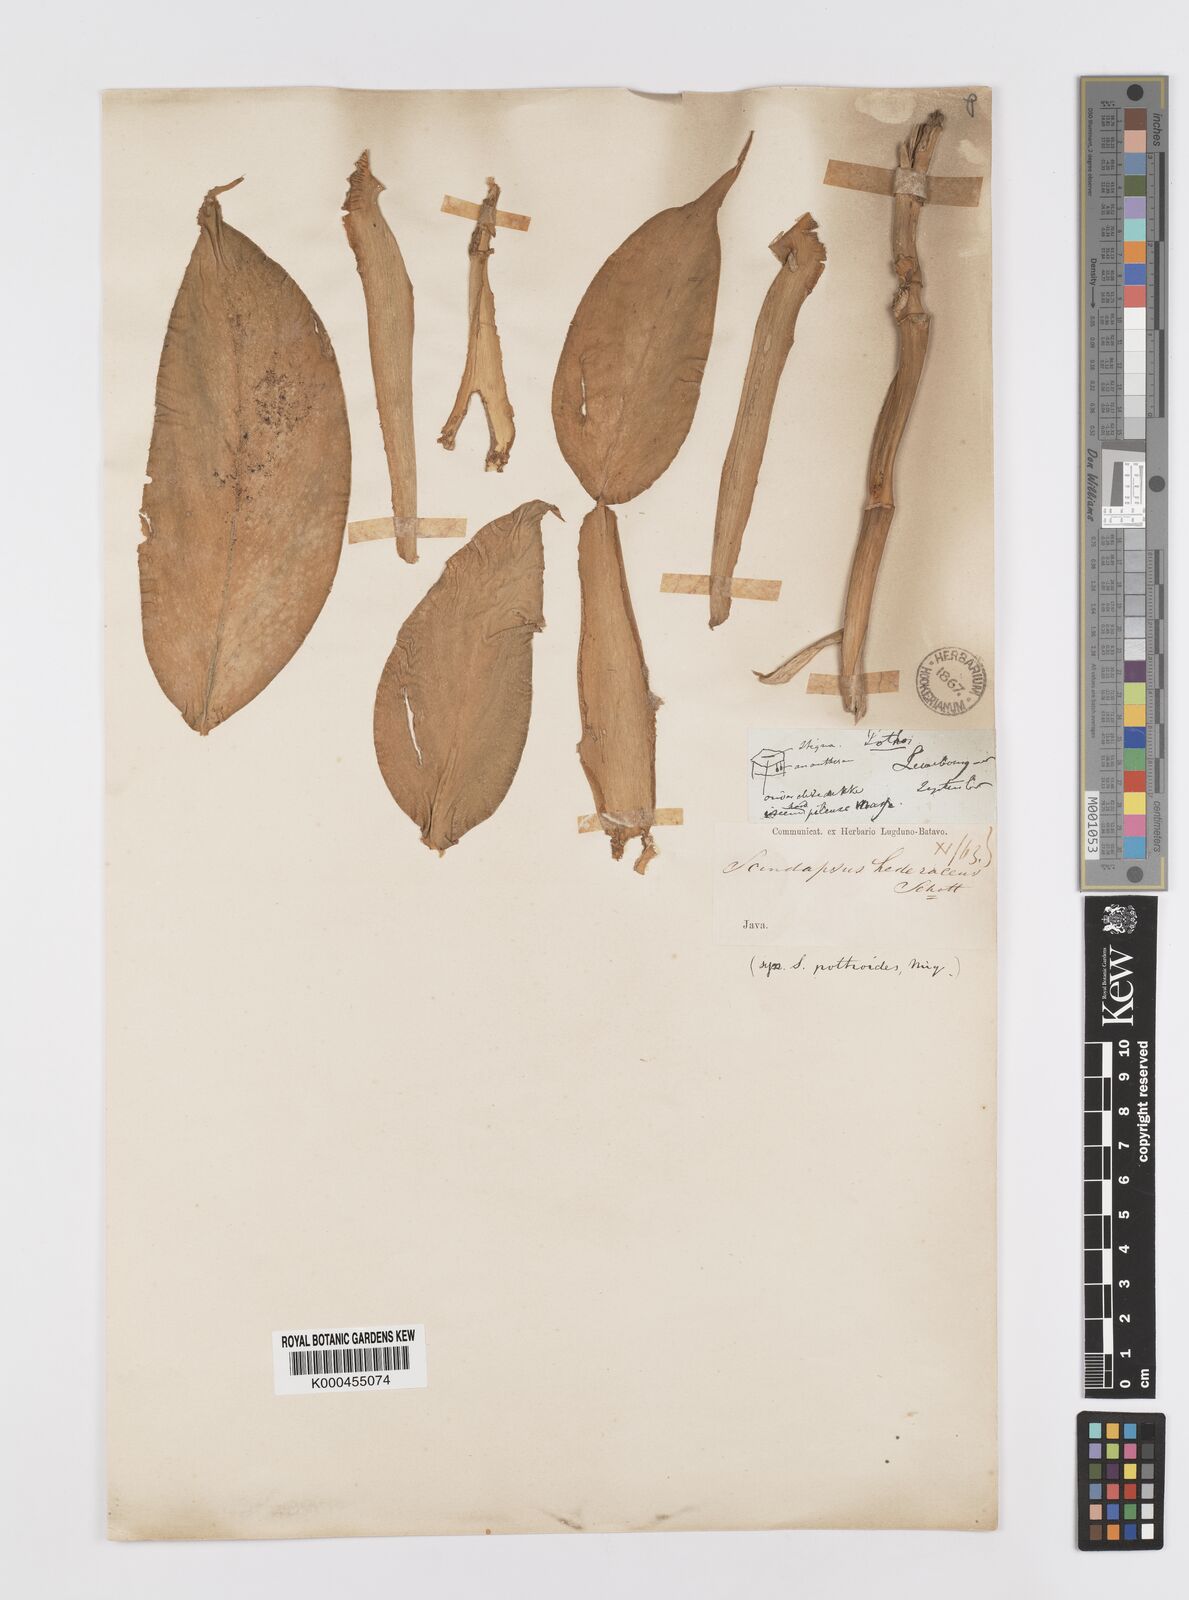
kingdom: Plantae
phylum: Tracheophyta
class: Liliopsida
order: Alismatales
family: Araceae
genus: Scindapsus
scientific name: Scindapsus hederaceus
